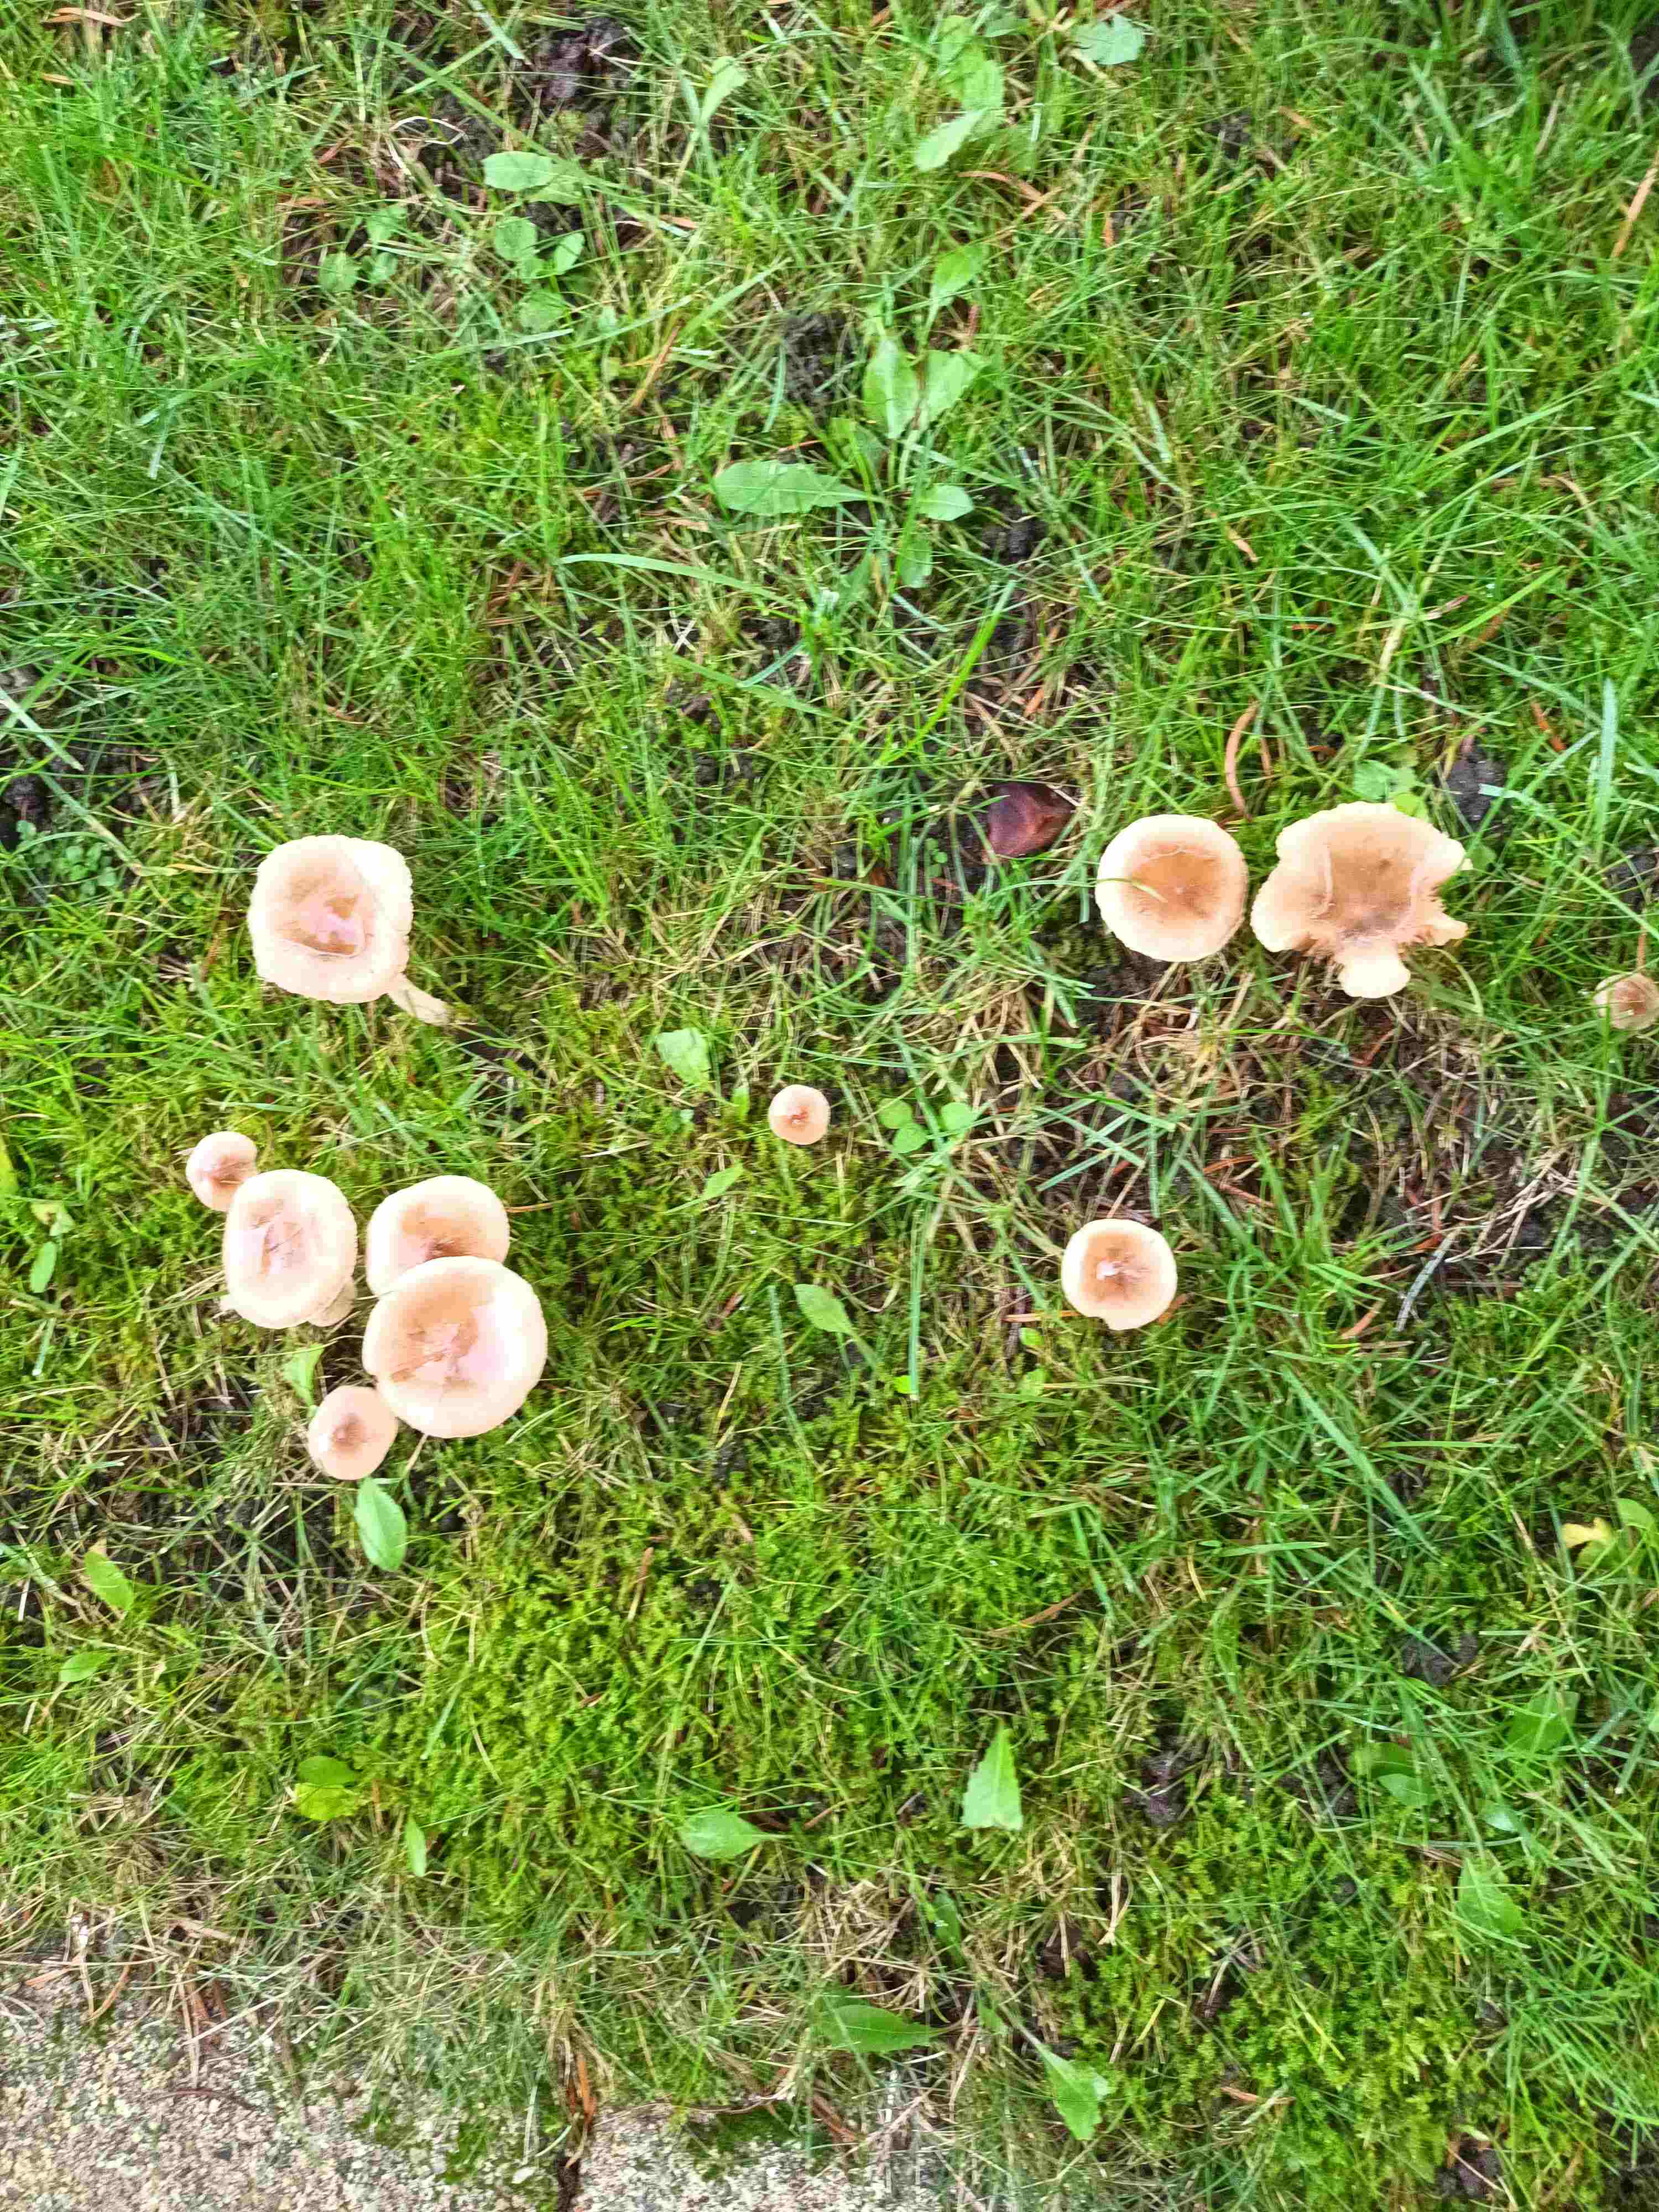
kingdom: Fungi
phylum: Basidiomycota
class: Agaricomycetes
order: Agaricales
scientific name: Agaricales
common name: champignonordenen
